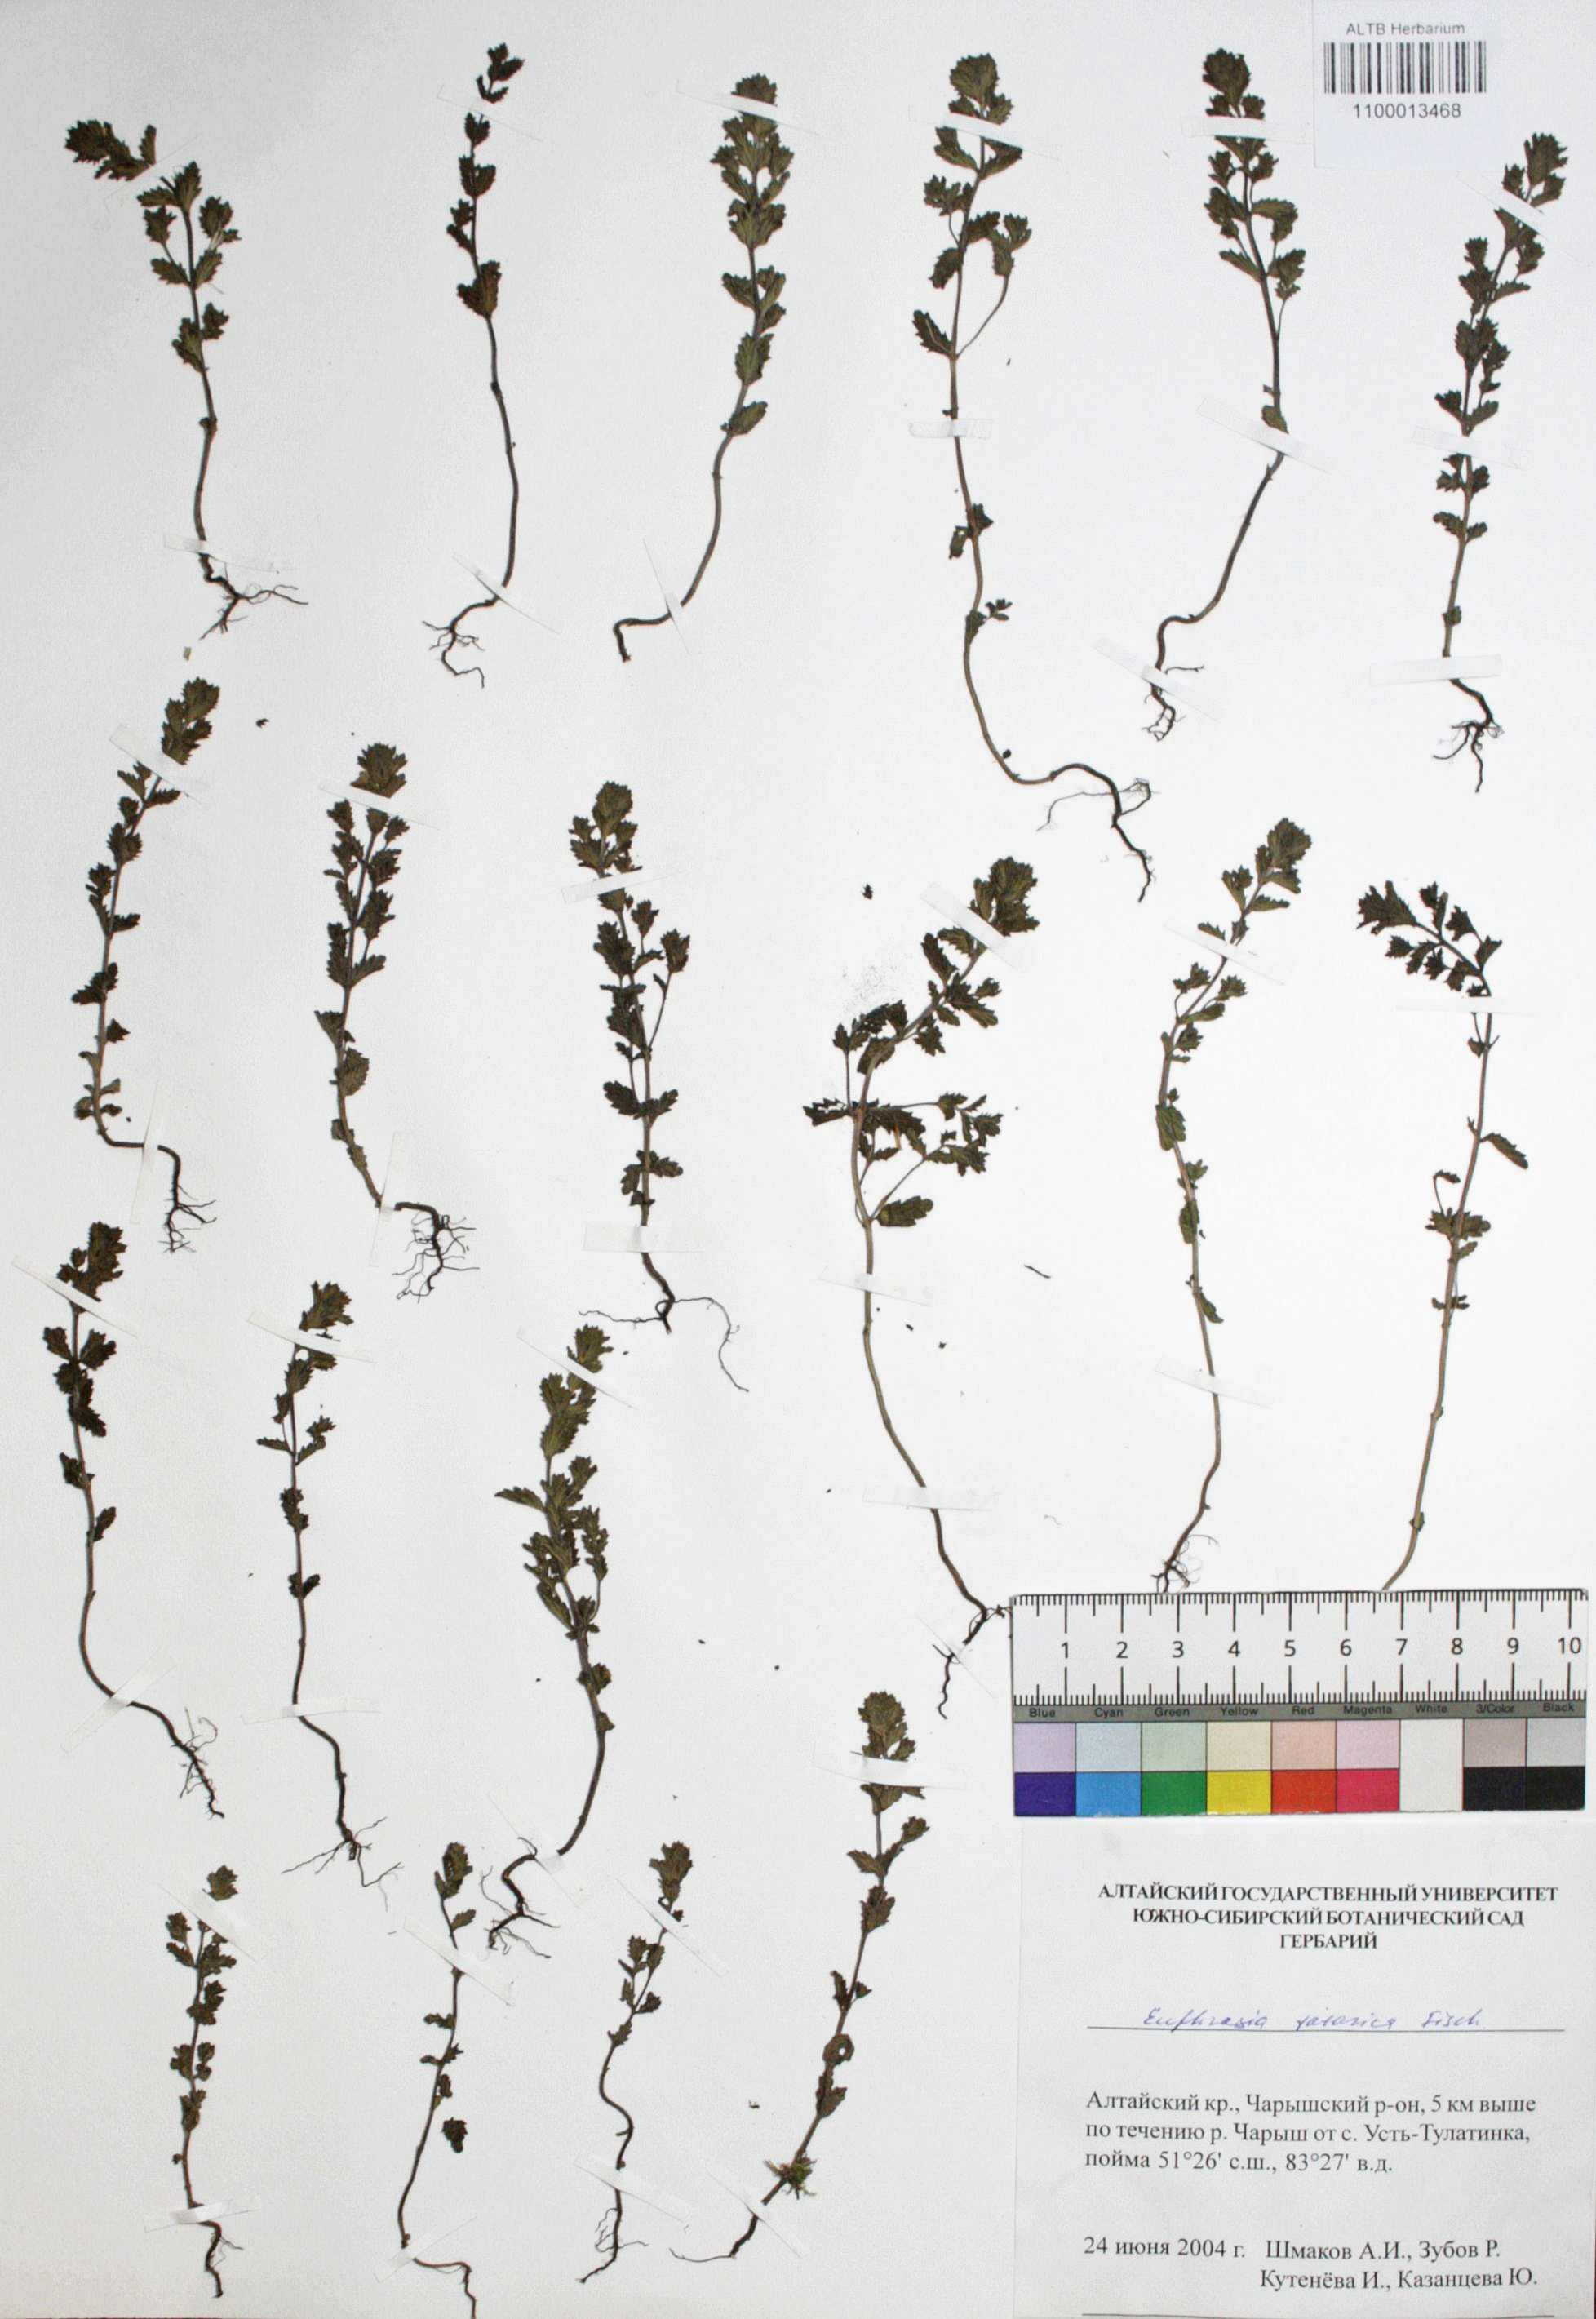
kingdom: Plantae
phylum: Tracheophyta
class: Magnoliopsida
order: Lamiales
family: Orobanchaceae
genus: Euphrasia
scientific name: Euphrasia pectinata
